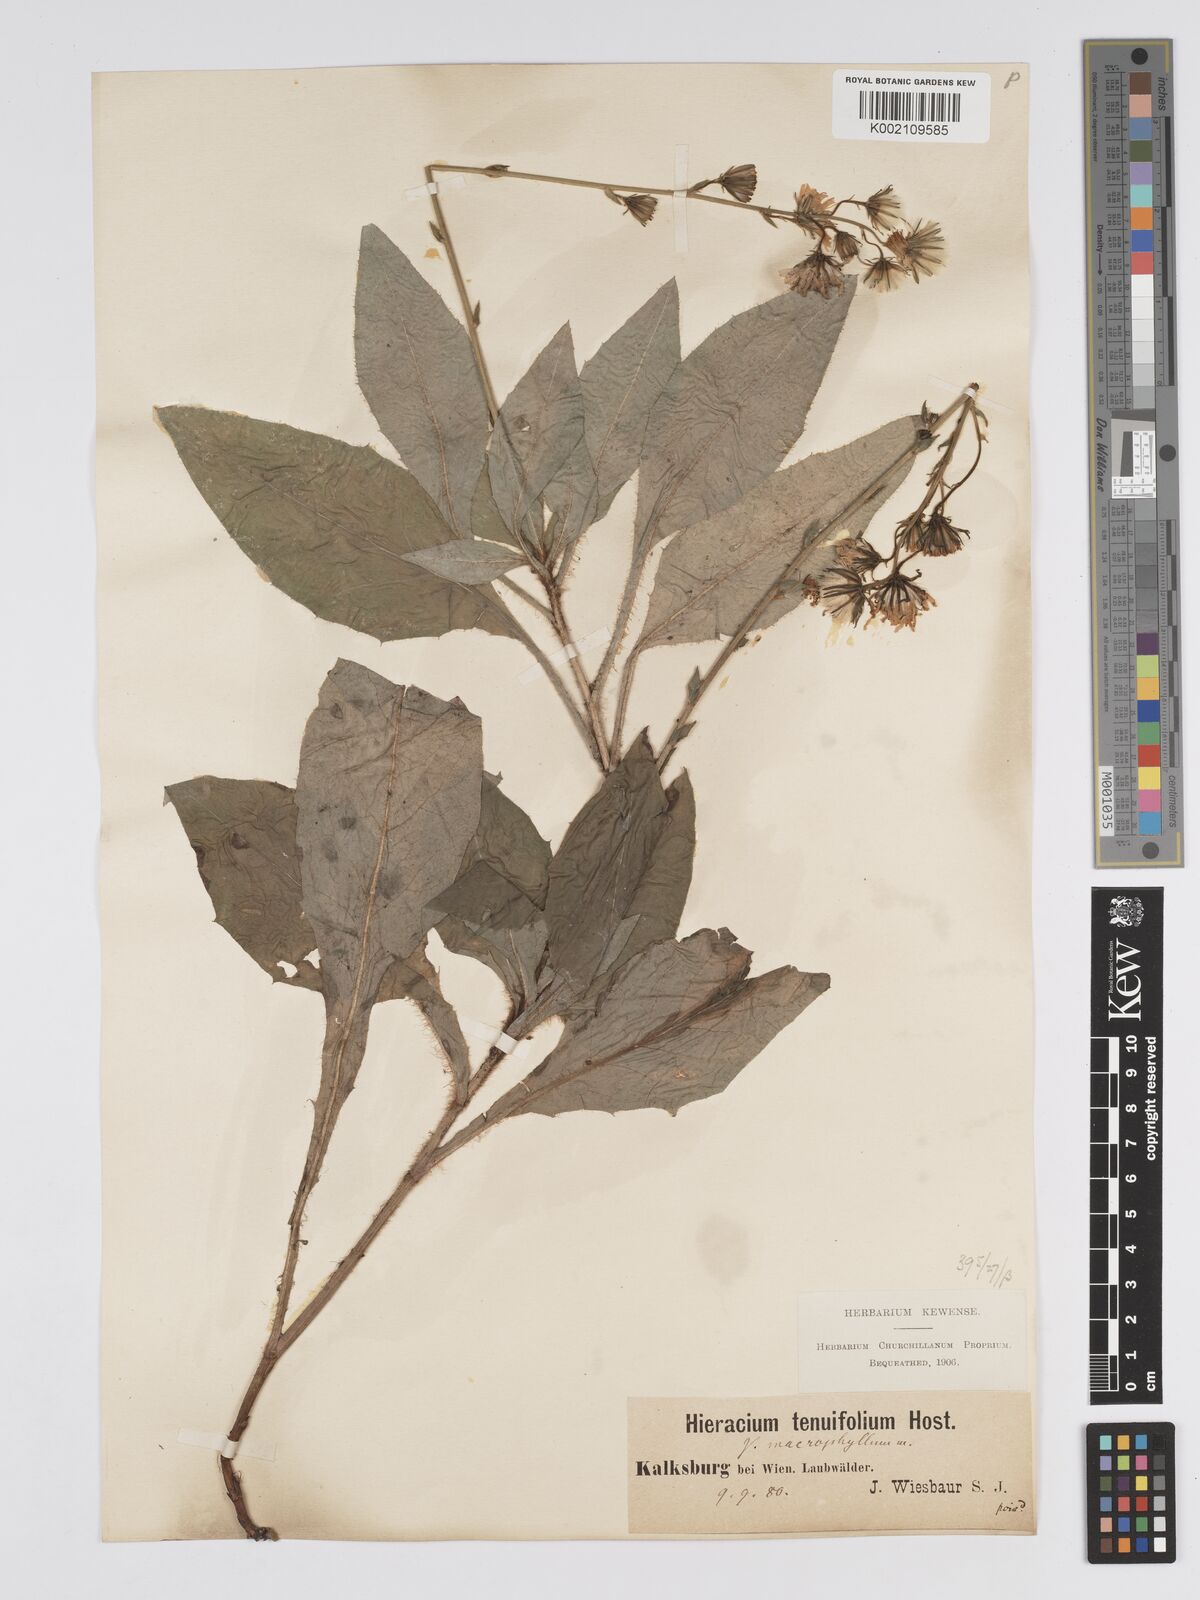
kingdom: Plantae
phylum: Tracheophyta
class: Magnoliopsida
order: Asterales
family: Asteraceae
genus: Hieracium
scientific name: Hieracium racemosum
